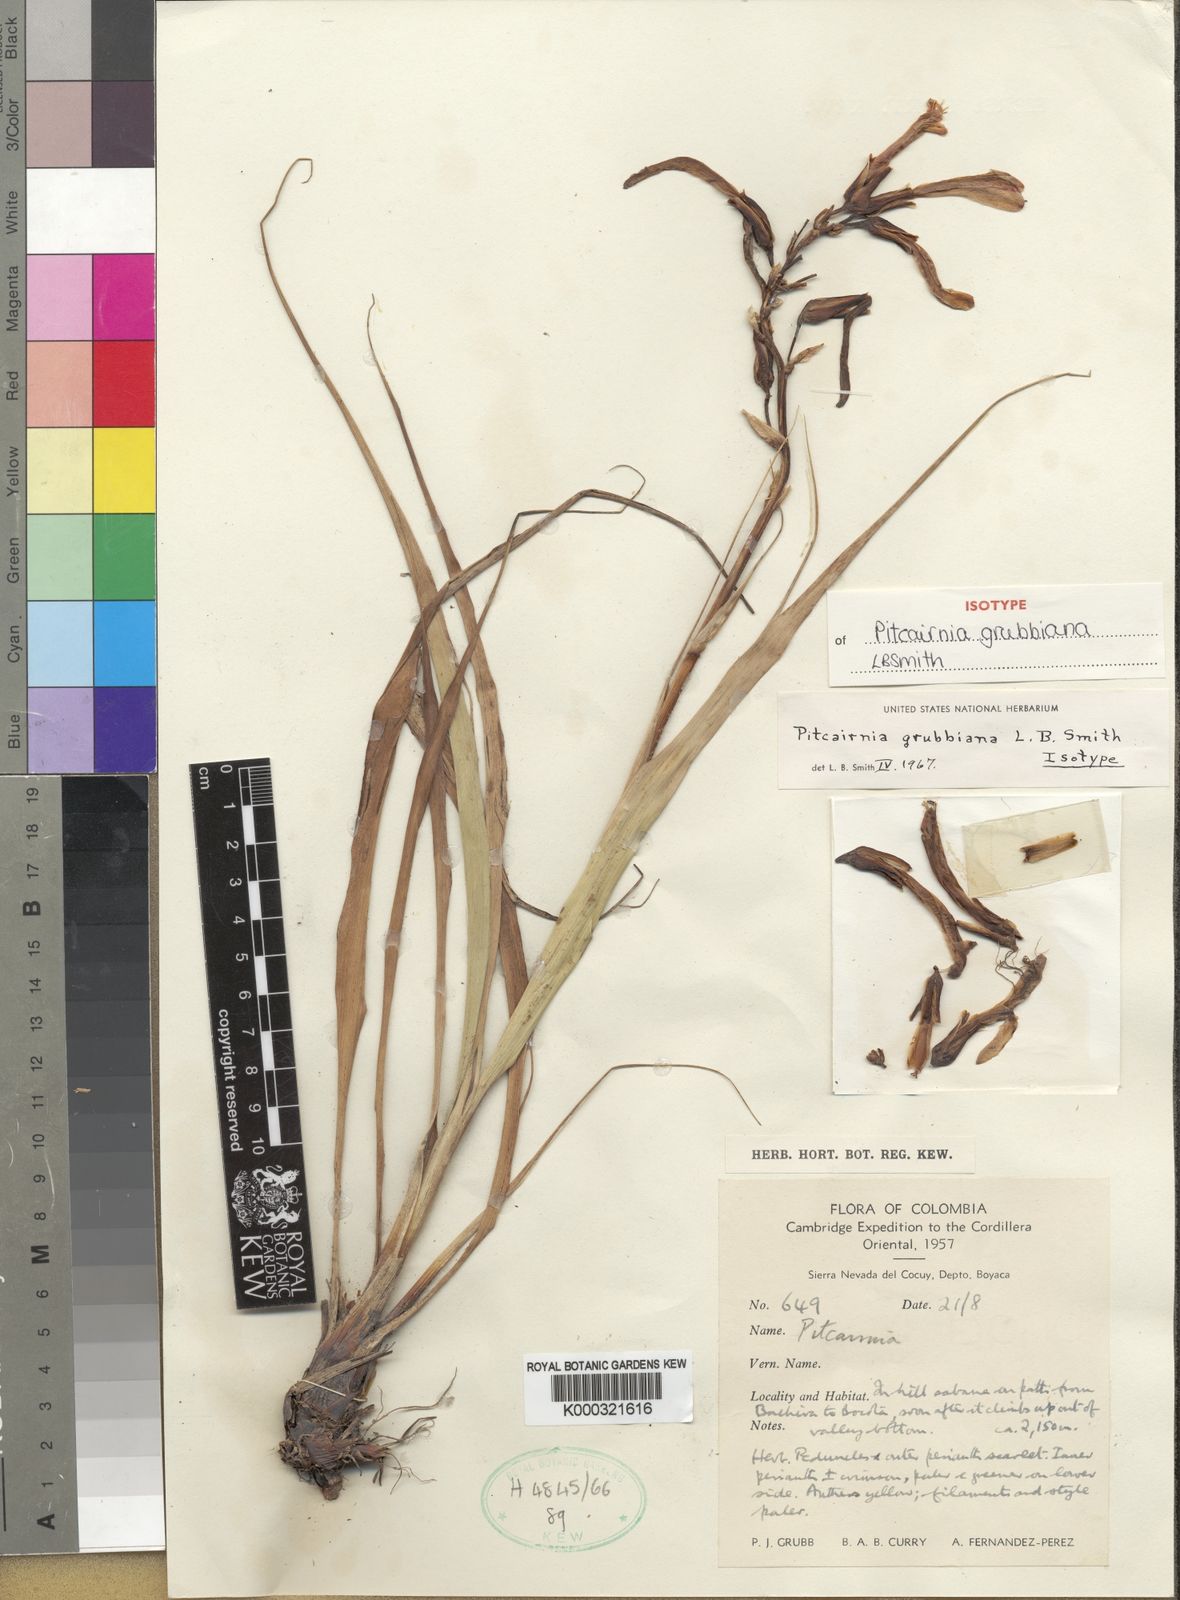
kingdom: Plantae
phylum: Tracheophyta
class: Liliopsida
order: Poales
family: Bromeliaceae
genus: Pitcairnia
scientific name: Pitcairnia grubbiana
